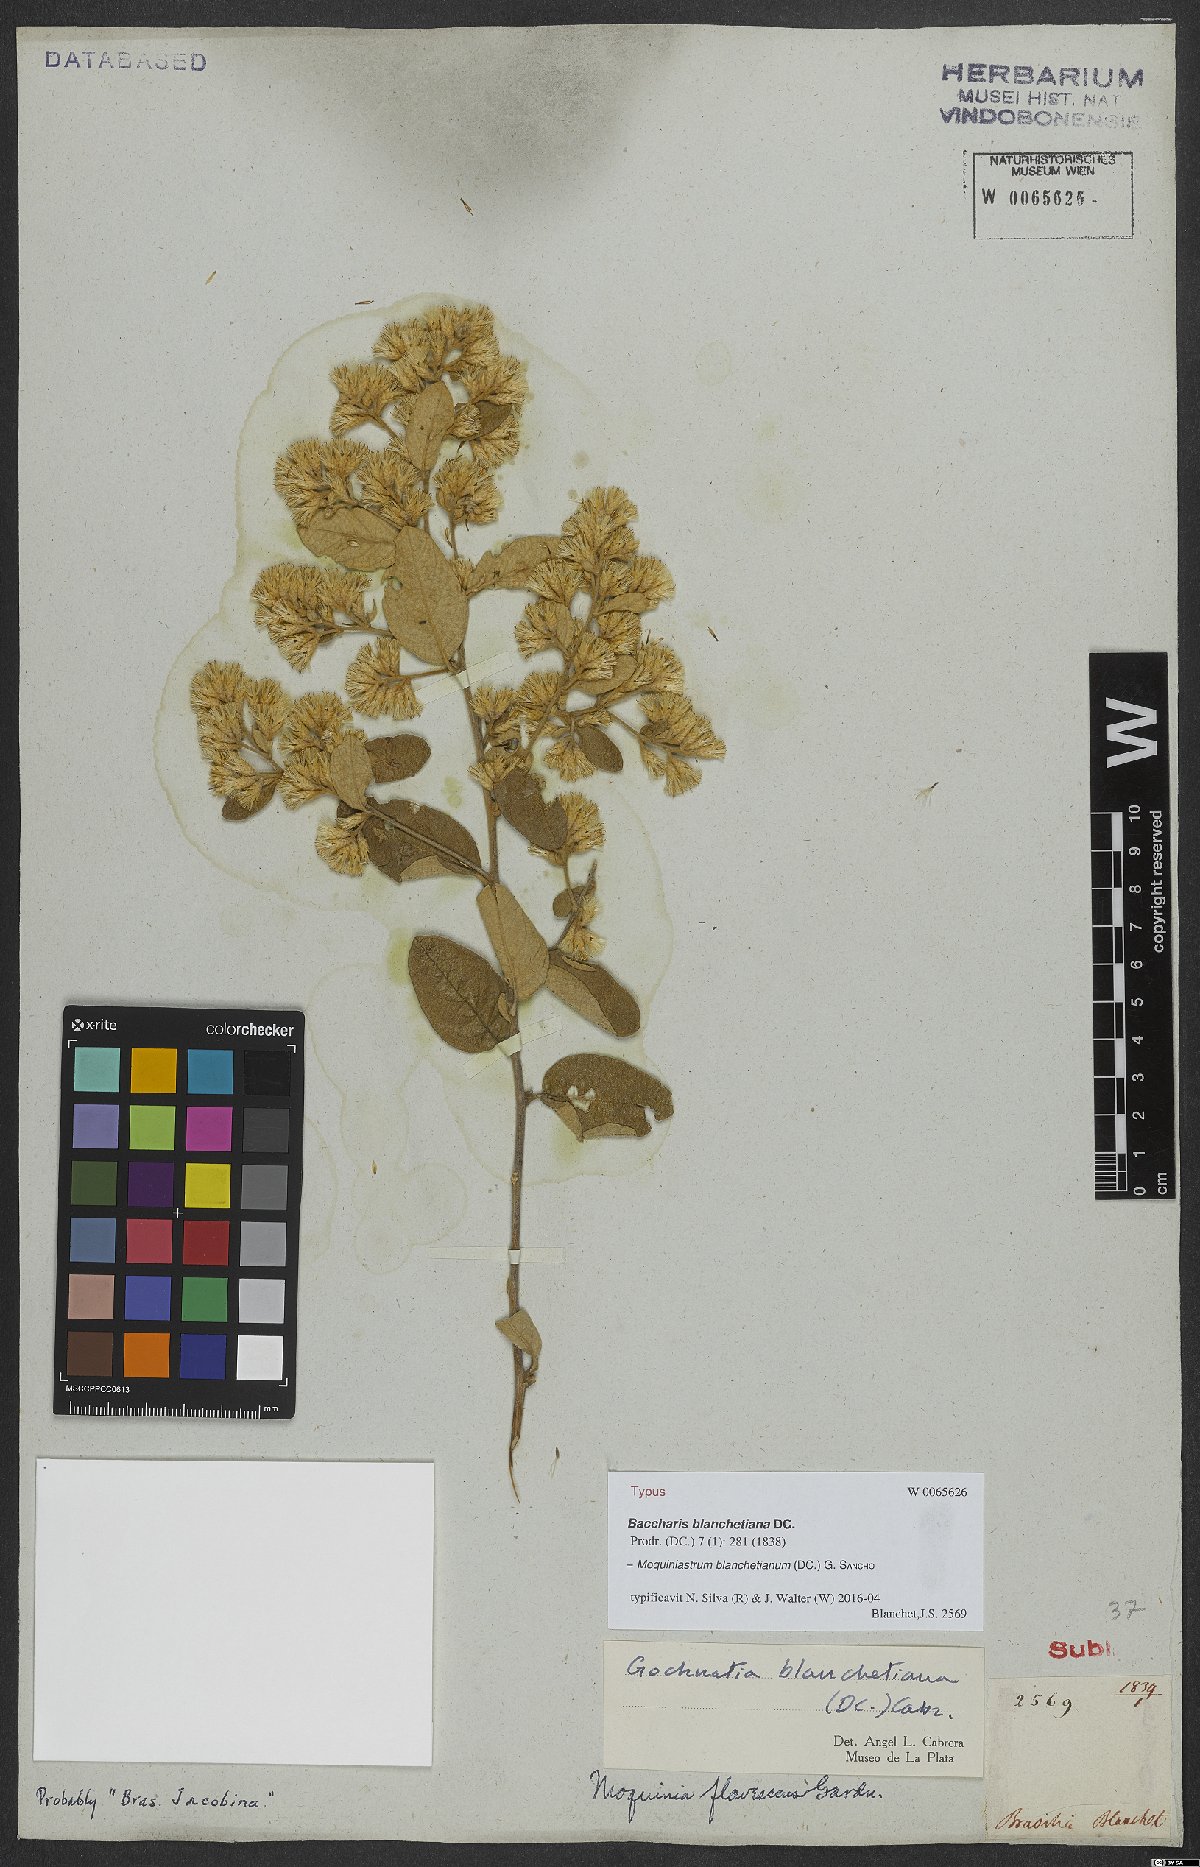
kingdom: Plantae
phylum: Tracheophyta
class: Magnoliopsida
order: Asterales
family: Asteraceae
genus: Moquiniastrum
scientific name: Moquiniastrum blanchetianum
